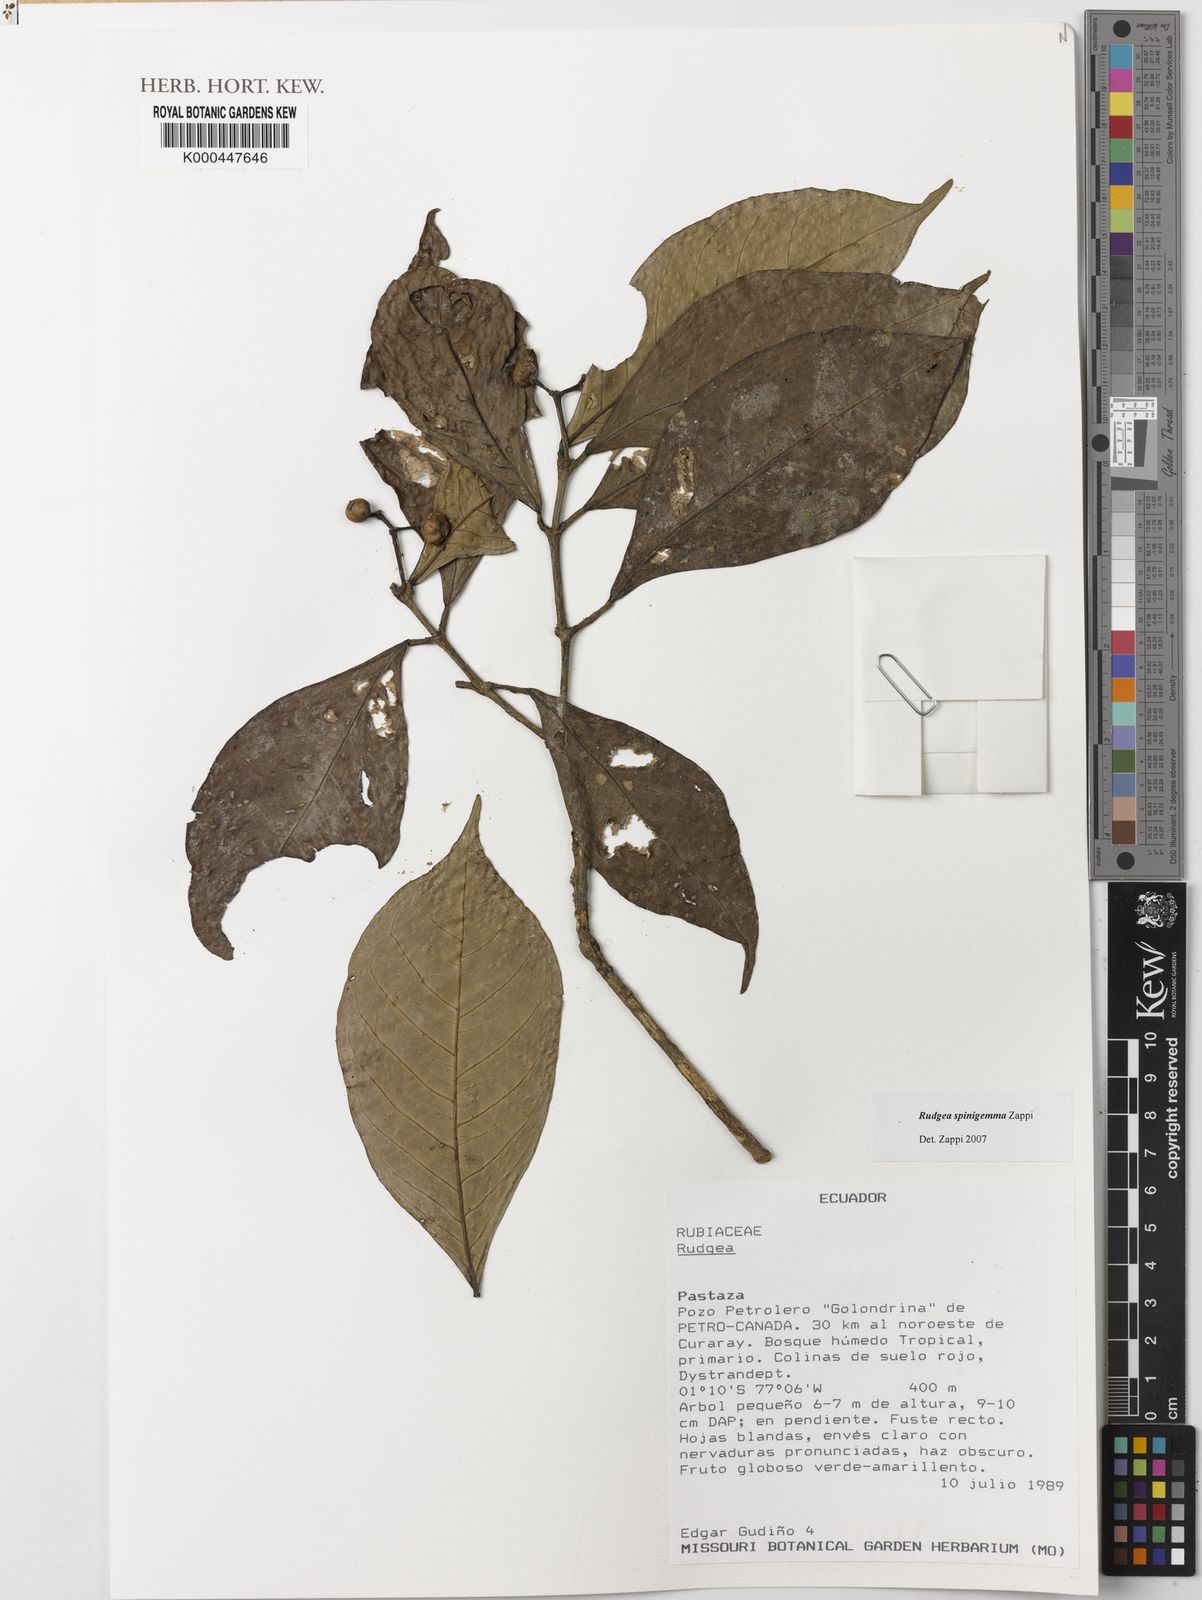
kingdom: Plantae
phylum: Tracheophyta
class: Magnoliopsida
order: Gentianales
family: Rubiaceae
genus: Rudgea
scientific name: Rudgea spinigemma
